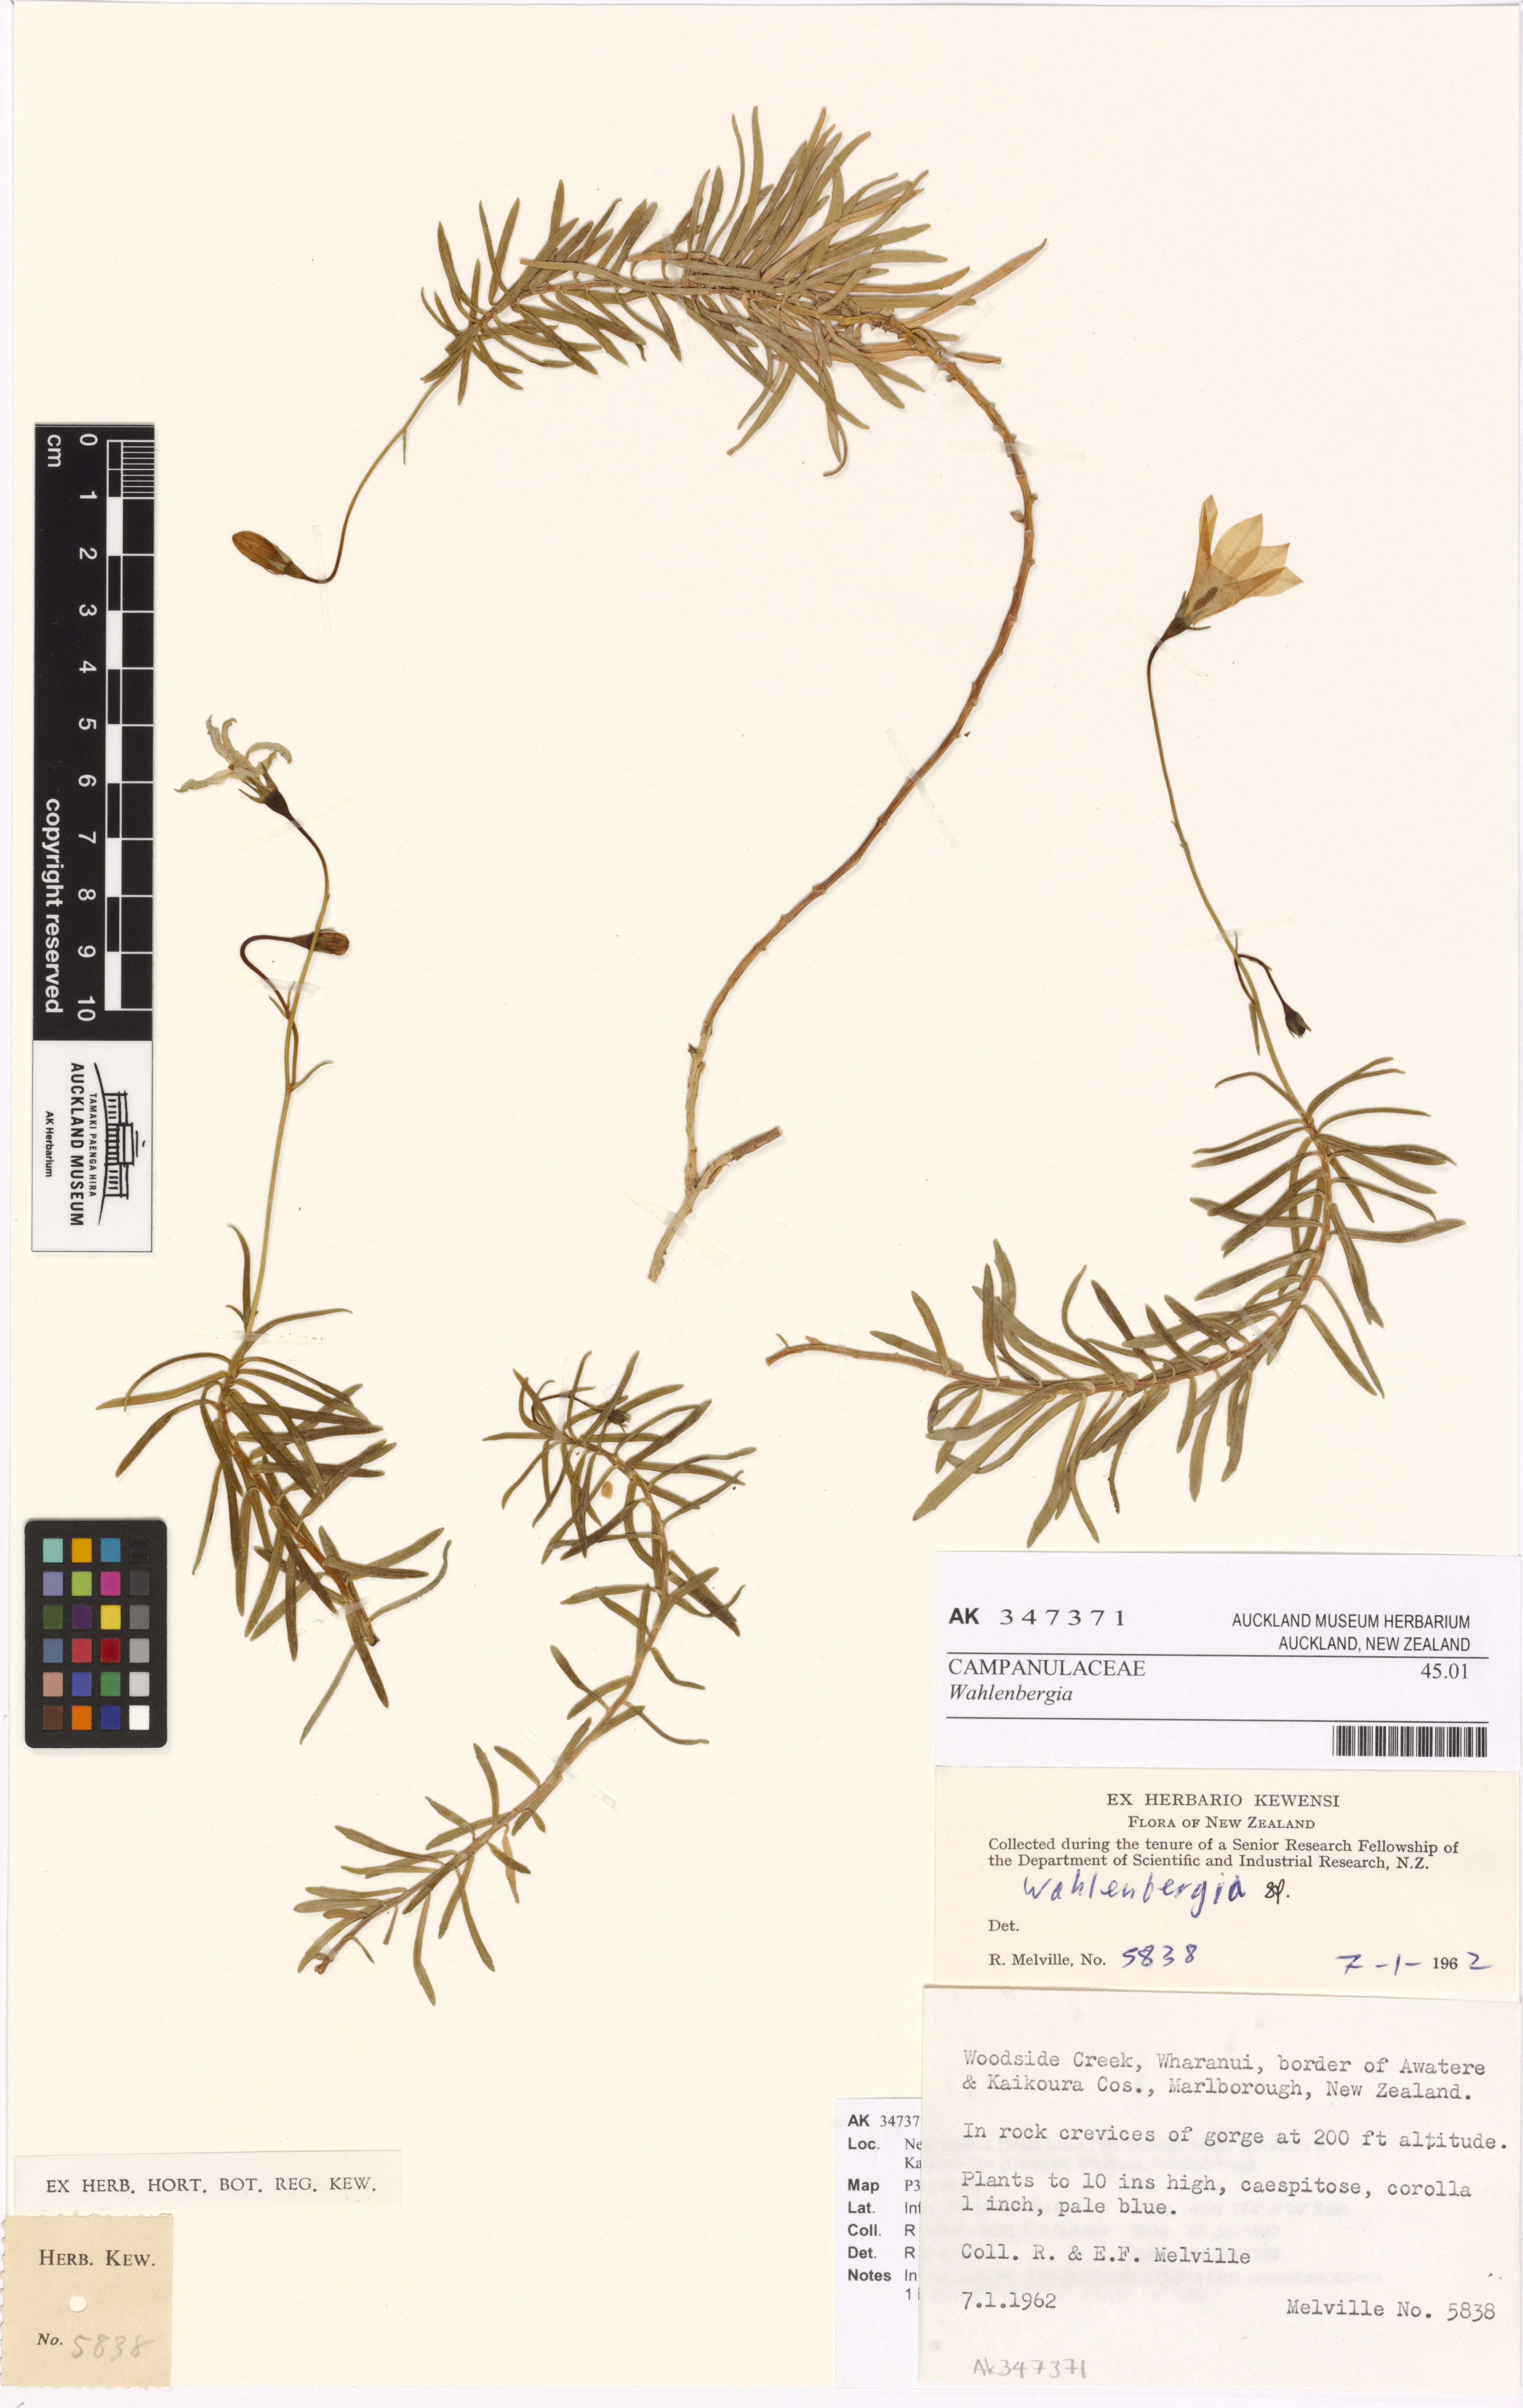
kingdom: Plantae
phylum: Tracheophyta
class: Magnoliopsida
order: Asterales
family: Campanulaceae
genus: Wahlenbergia
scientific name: Wahlenbergia
